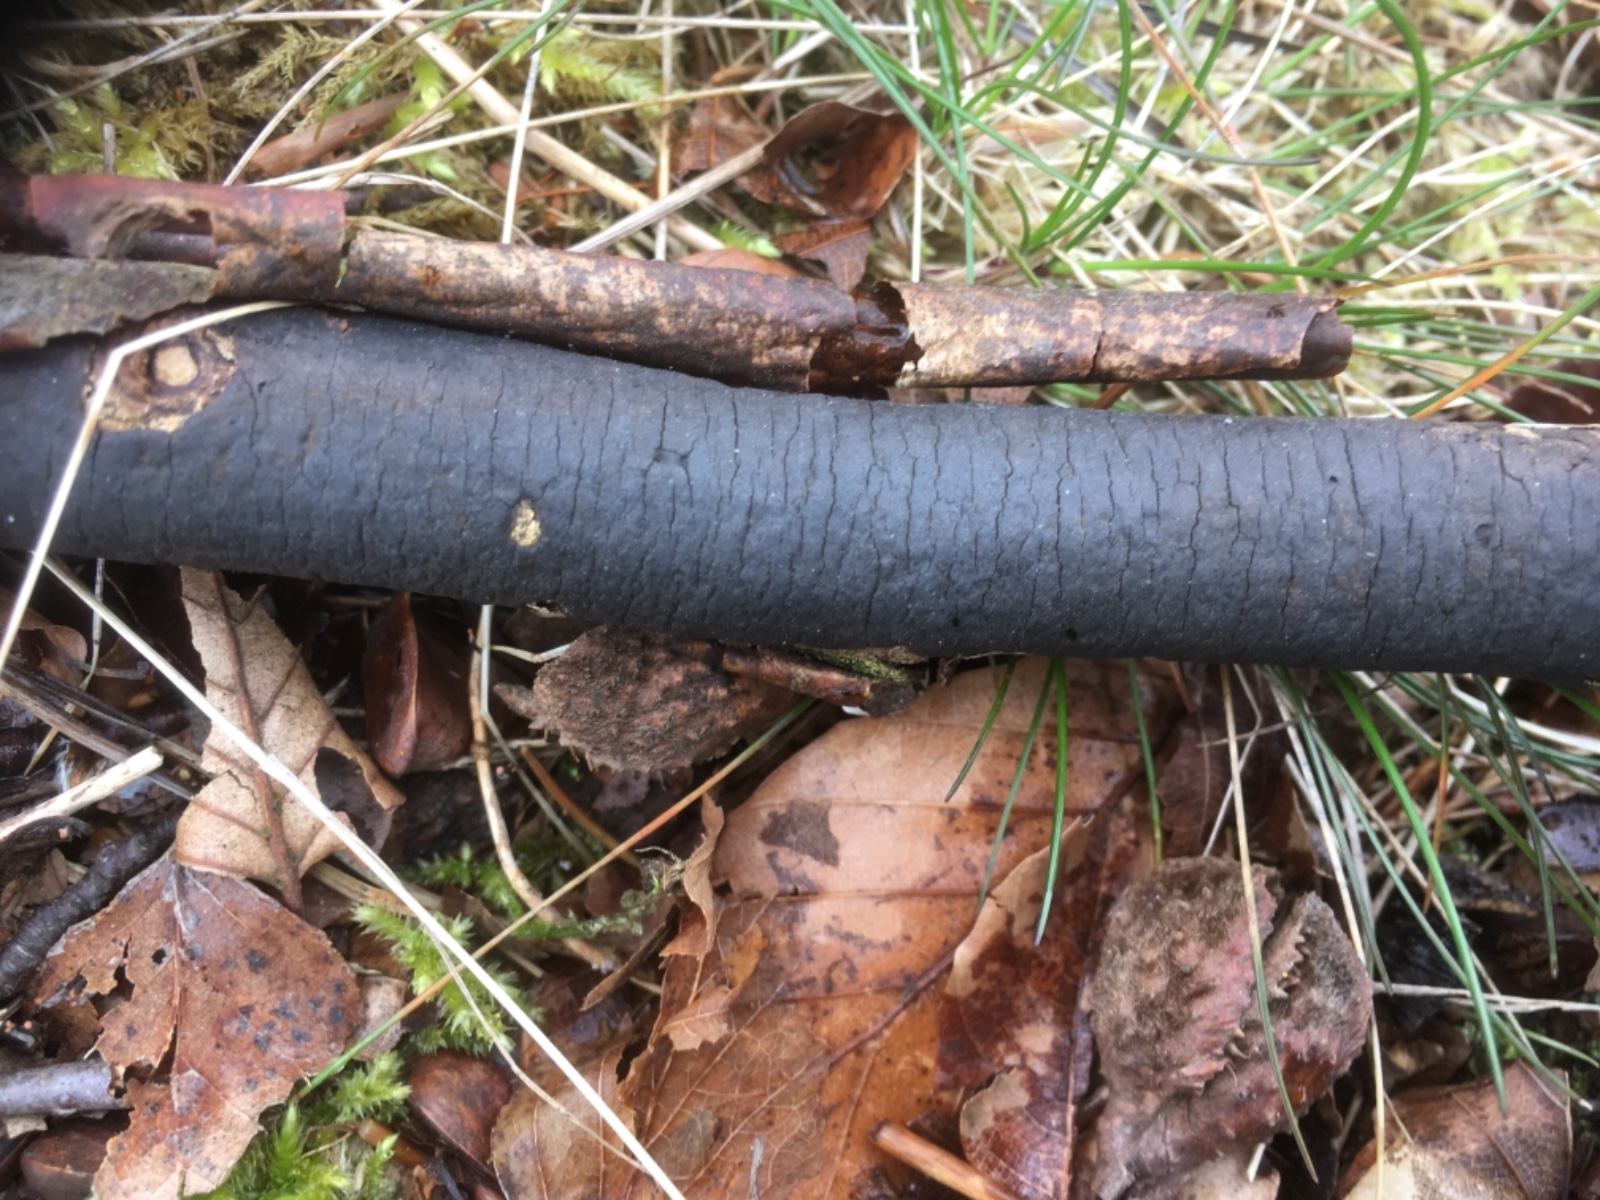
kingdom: Fungi
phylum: Ascomycota
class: Sordariomycetes
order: Xylariales
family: Diatrypaceae
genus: Diatrype
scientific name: Diatrype decorticata
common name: barksprænger-kulskorpe
